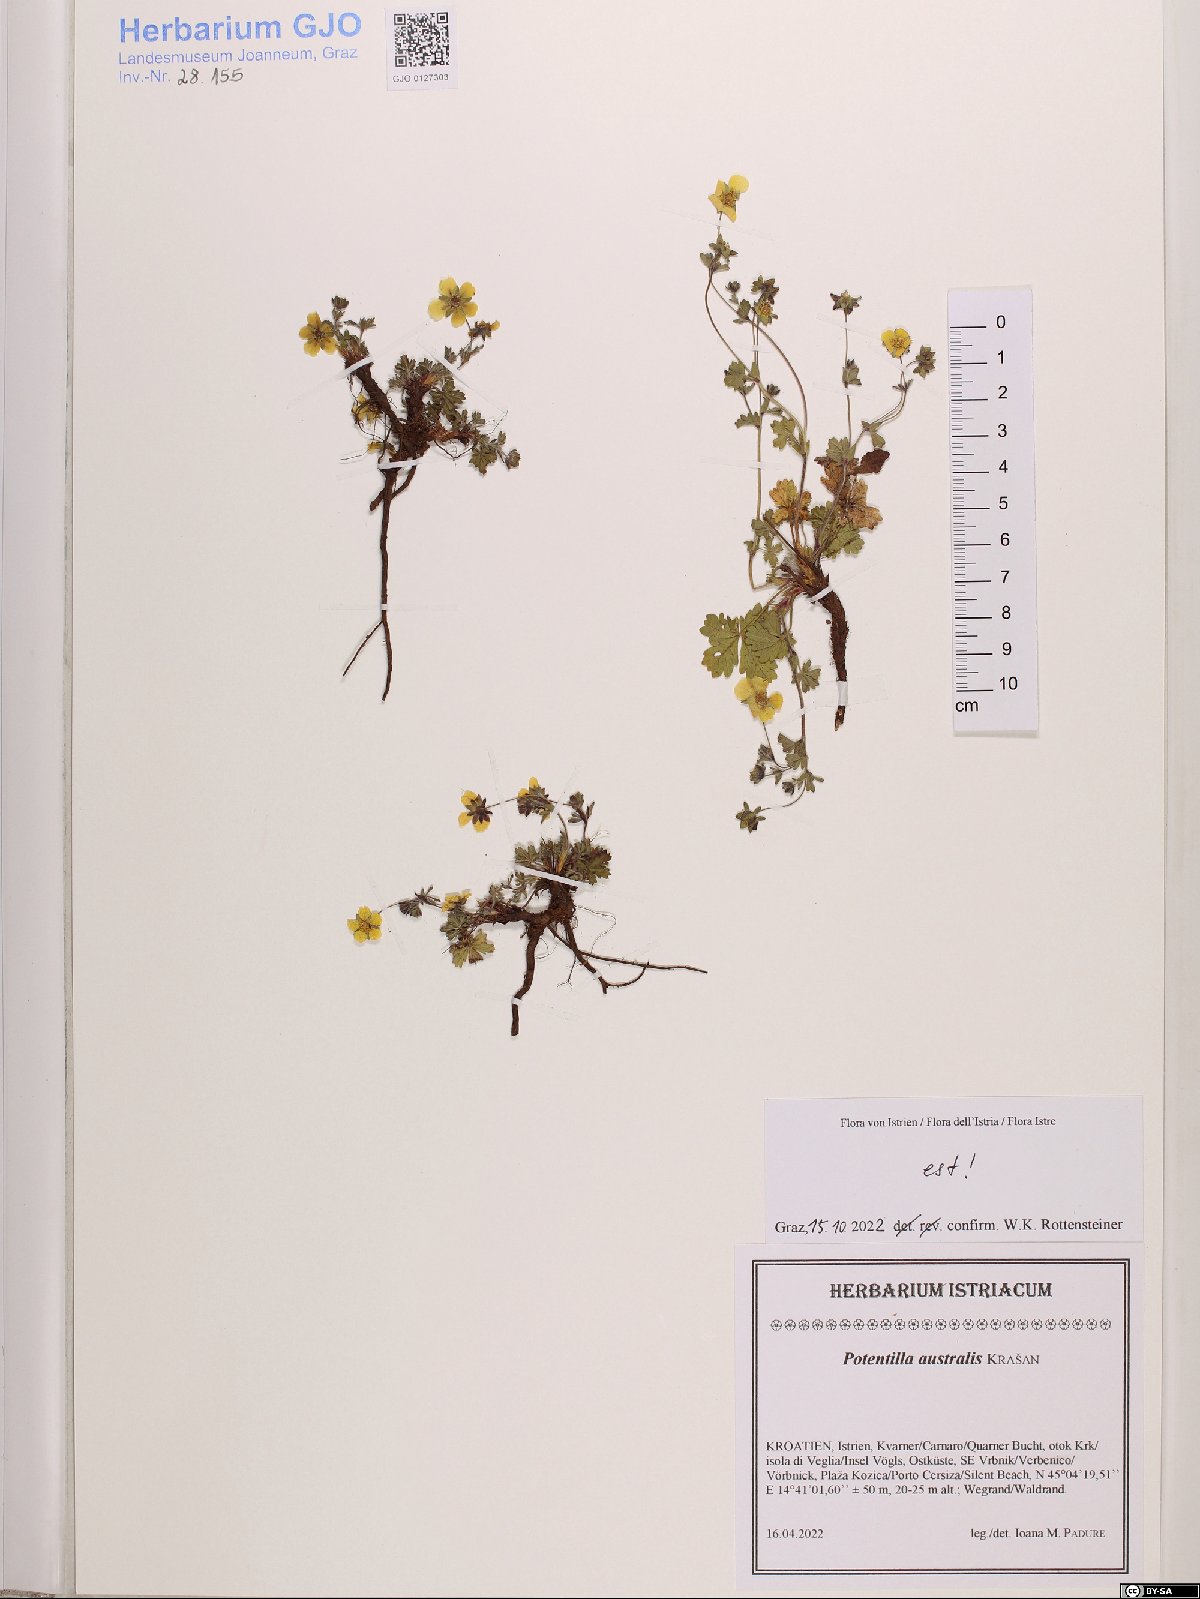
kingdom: Plantae
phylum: Tracheophyta
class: Magnoliopsida
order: Rosales
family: Rosaceae
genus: Potentilla
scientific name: Potentilla heptaphylla
